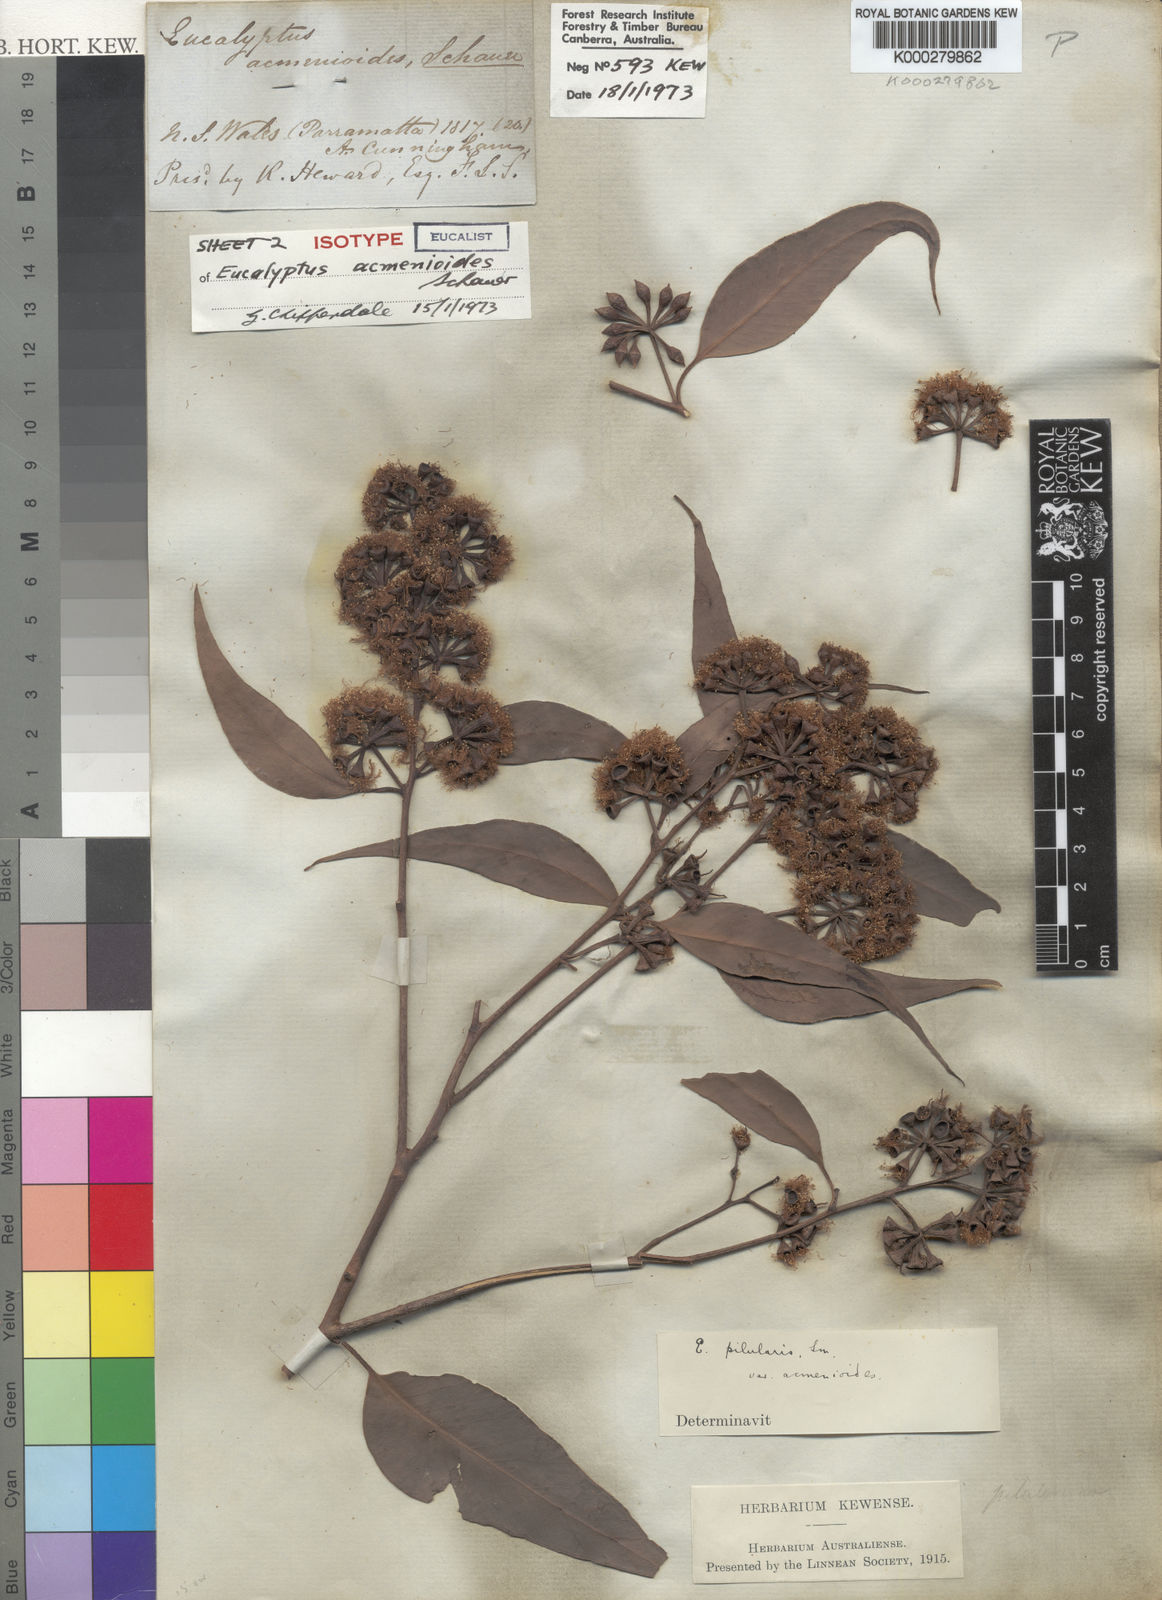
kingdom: Plantae
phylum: Tracheophyta
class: Magnoliopsida
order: Myrtales
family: Myrtaceae
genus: Eucalyptus
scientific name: Eucalyptus acmenoides
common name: White-mahogany
